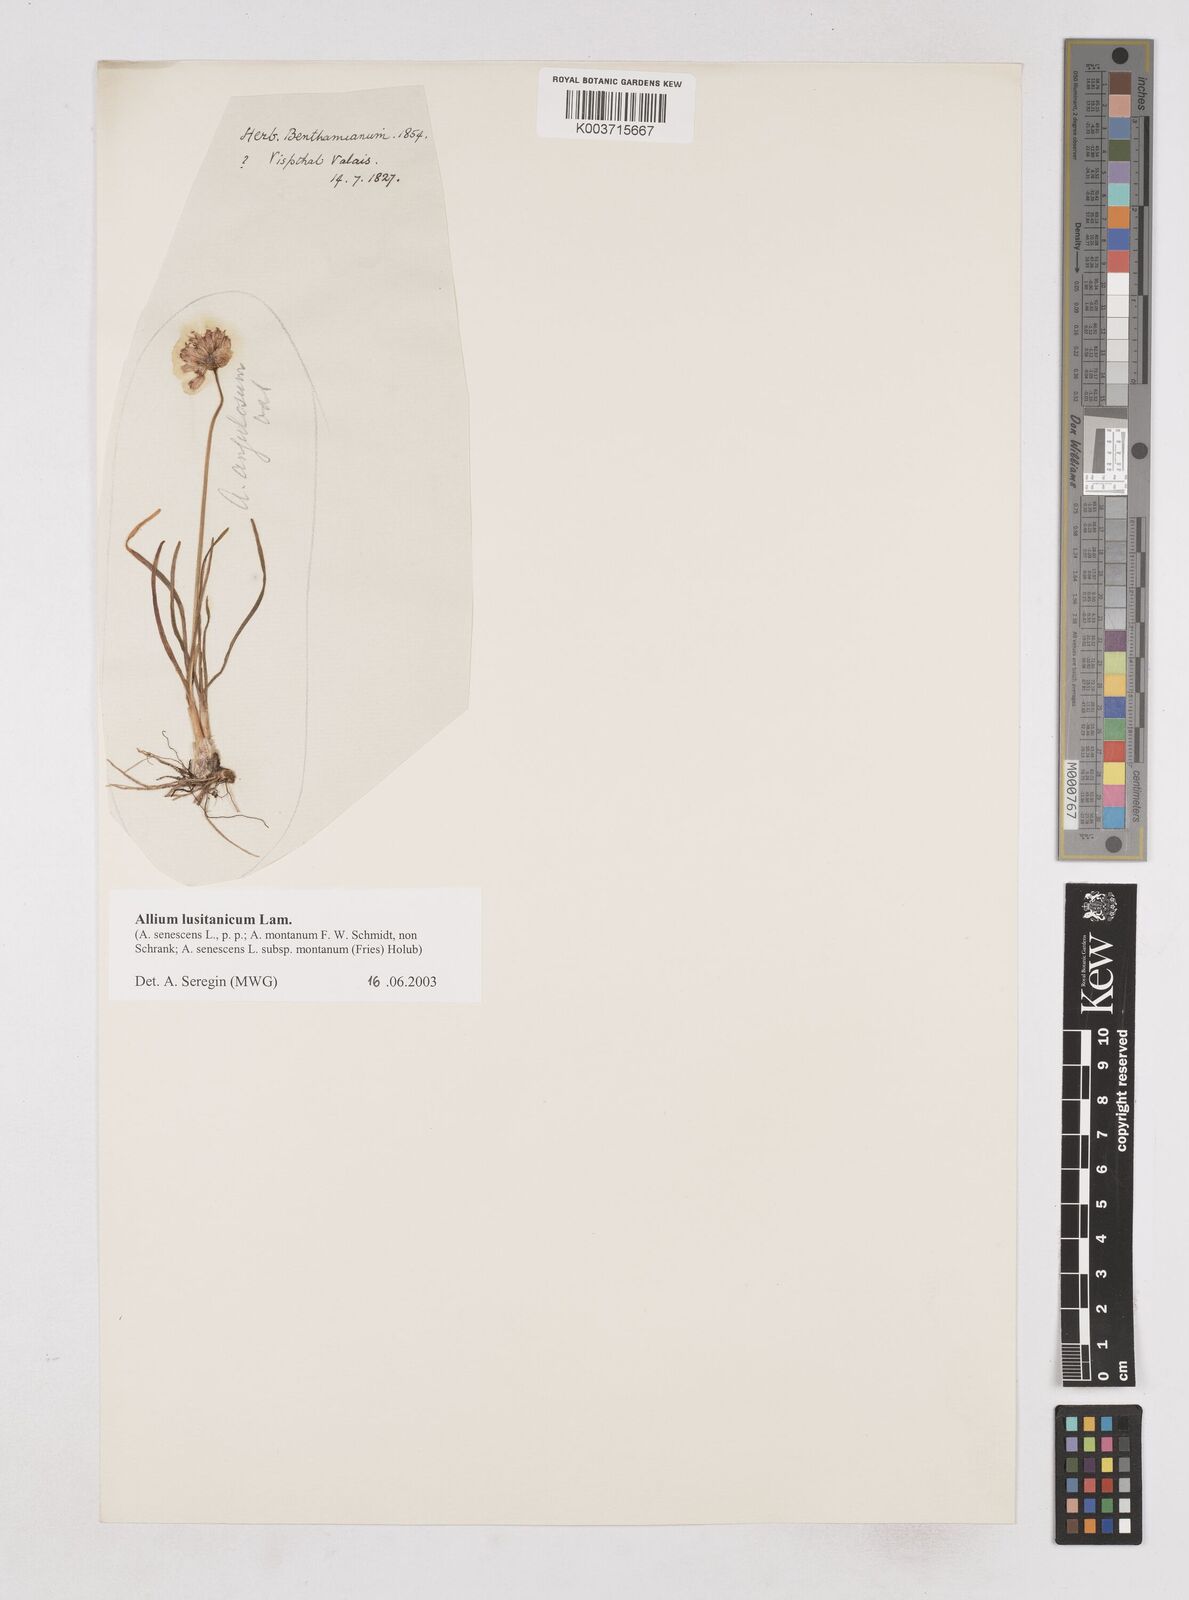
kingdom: Plantae
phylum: Tracheophyta
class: Liliopsida
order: Asparagales
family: Amaryllidaceae
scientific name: Amaryllidaceae
